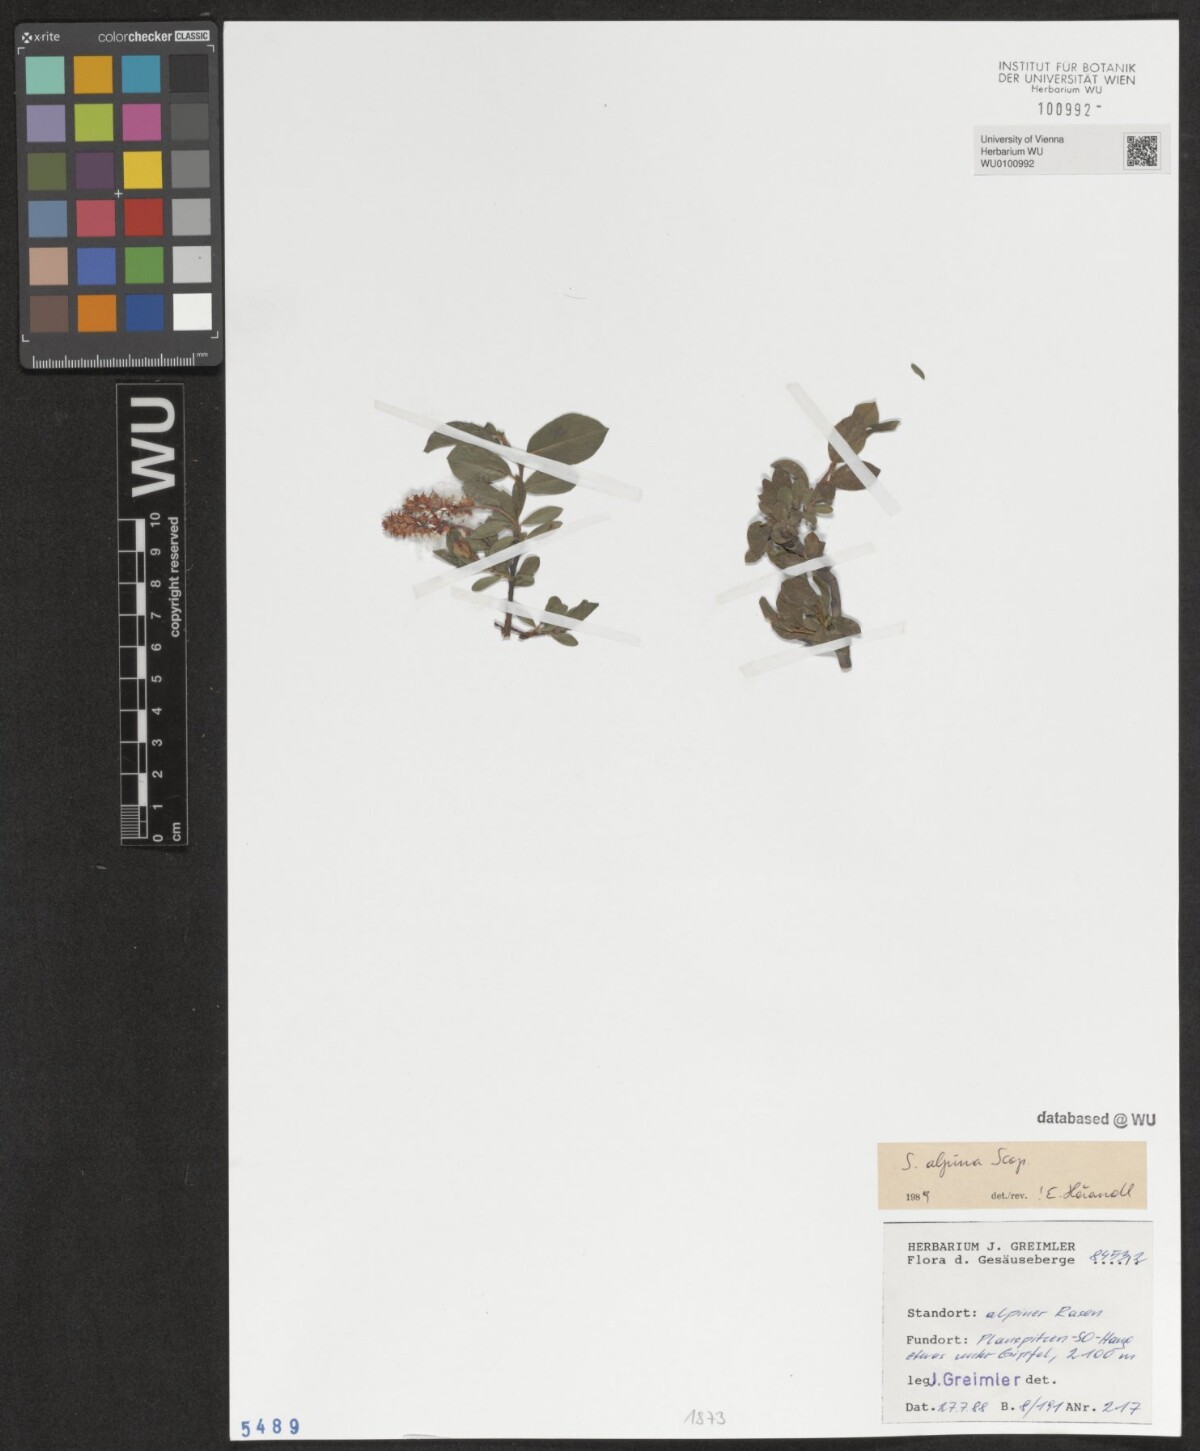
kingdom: Plantae
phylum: Tracheophyta
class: Magnoliopsida
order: Malpighiales
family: Salicaceae
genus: Salix
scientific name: Salix alpina
